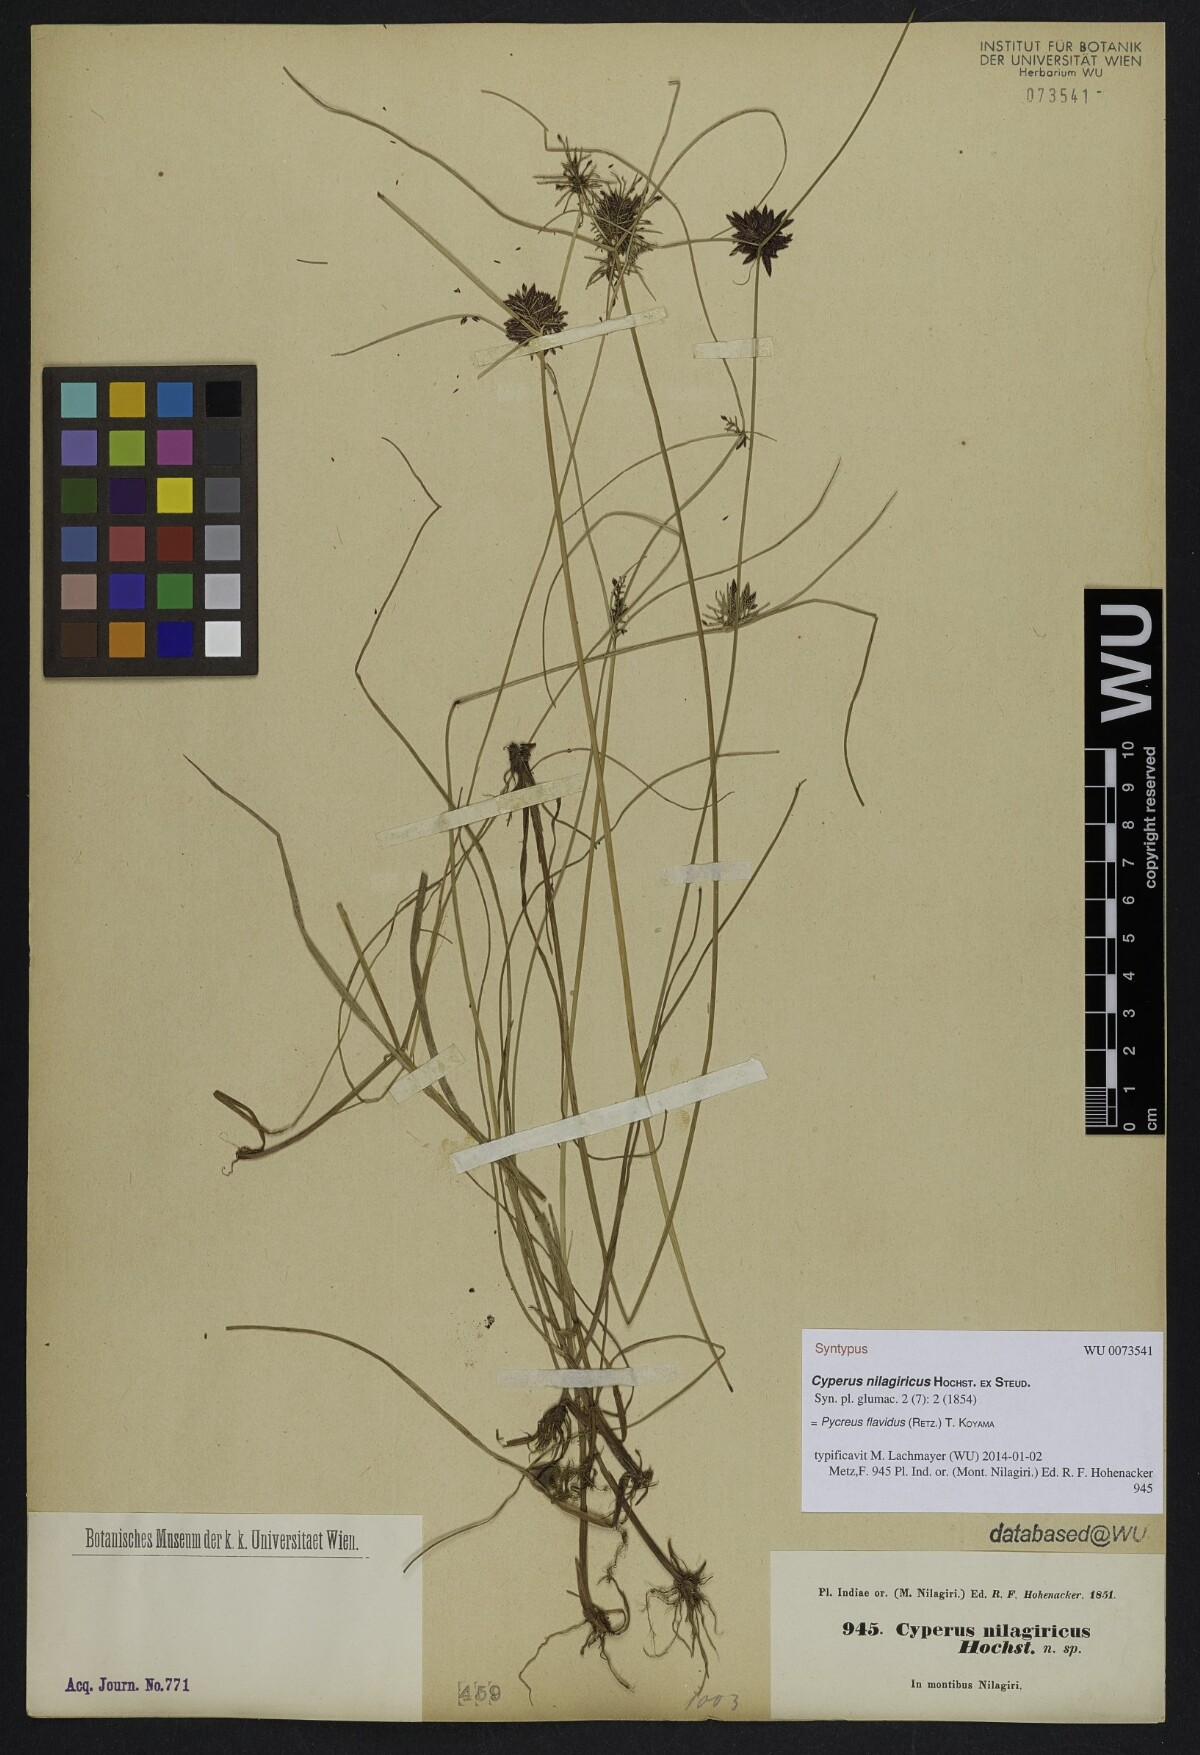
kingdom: Plantae
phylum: Tracheophyta
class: Liliopsida
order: Poales
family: Cyperaceae
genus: Cyperus
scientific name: Cyperus flavidus
